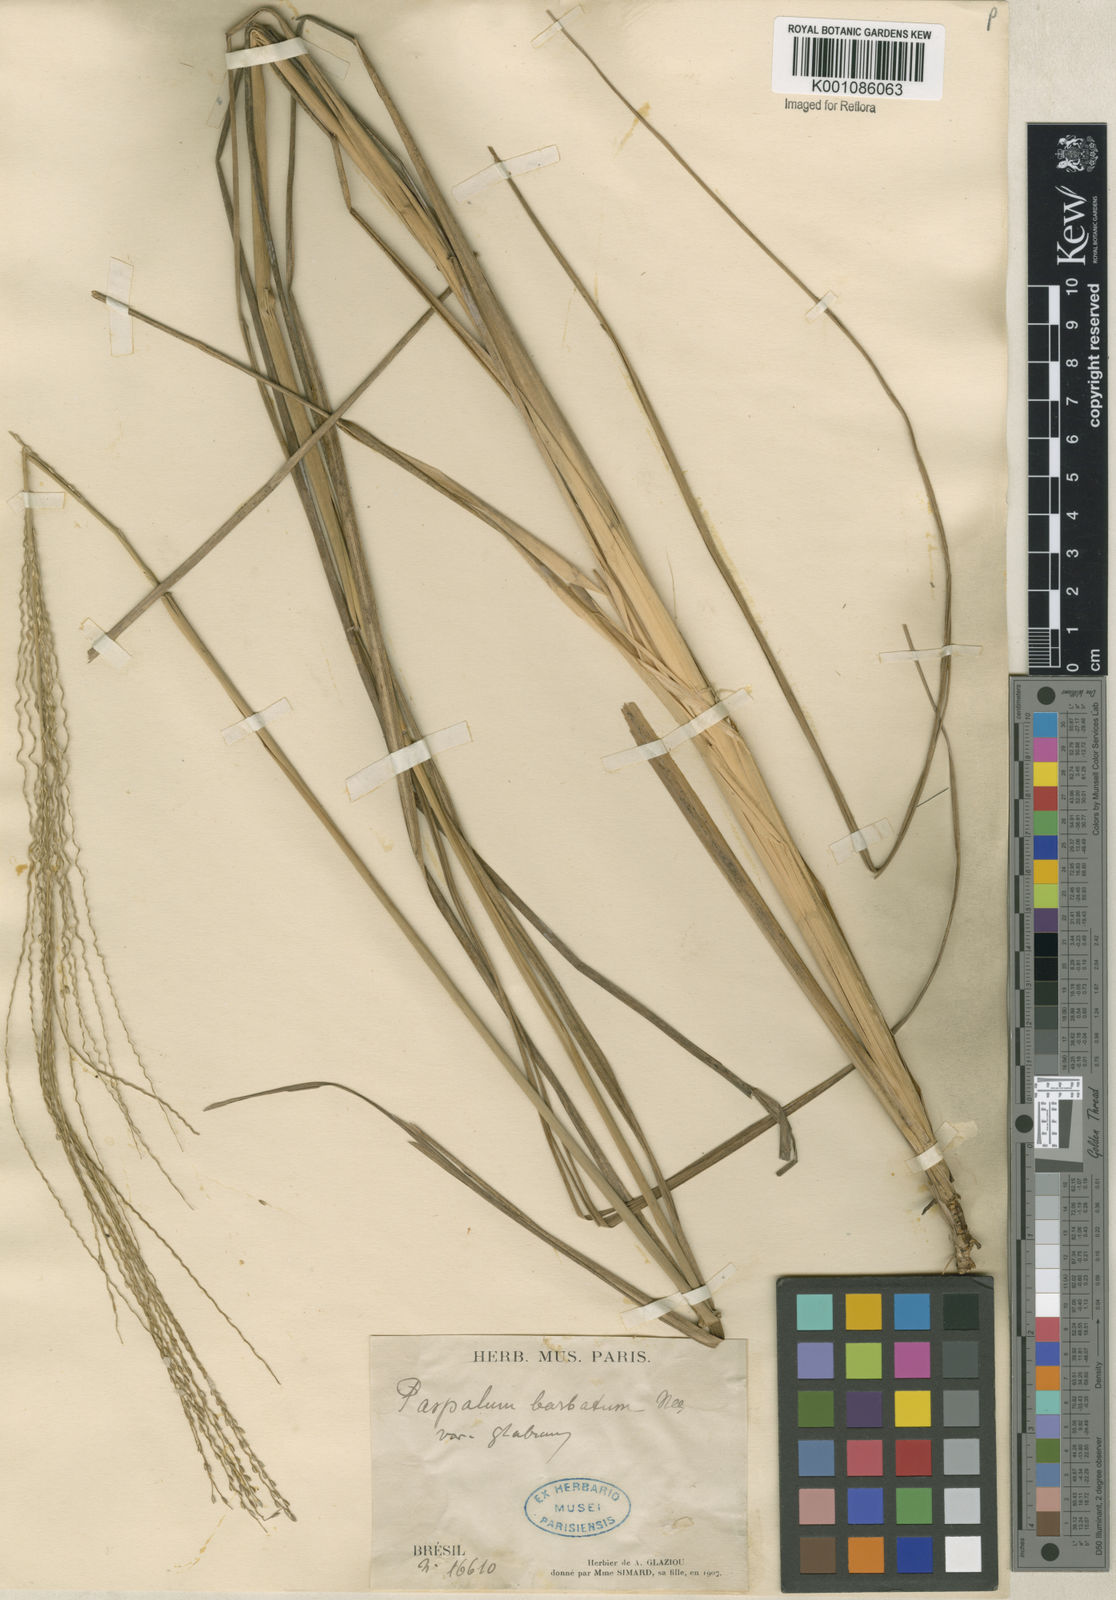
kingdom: Plantae
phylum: Tracheophyta
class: Liliopsida
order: Poales
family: Poaceae
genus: Axonopus
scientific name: Axonopus siccus
